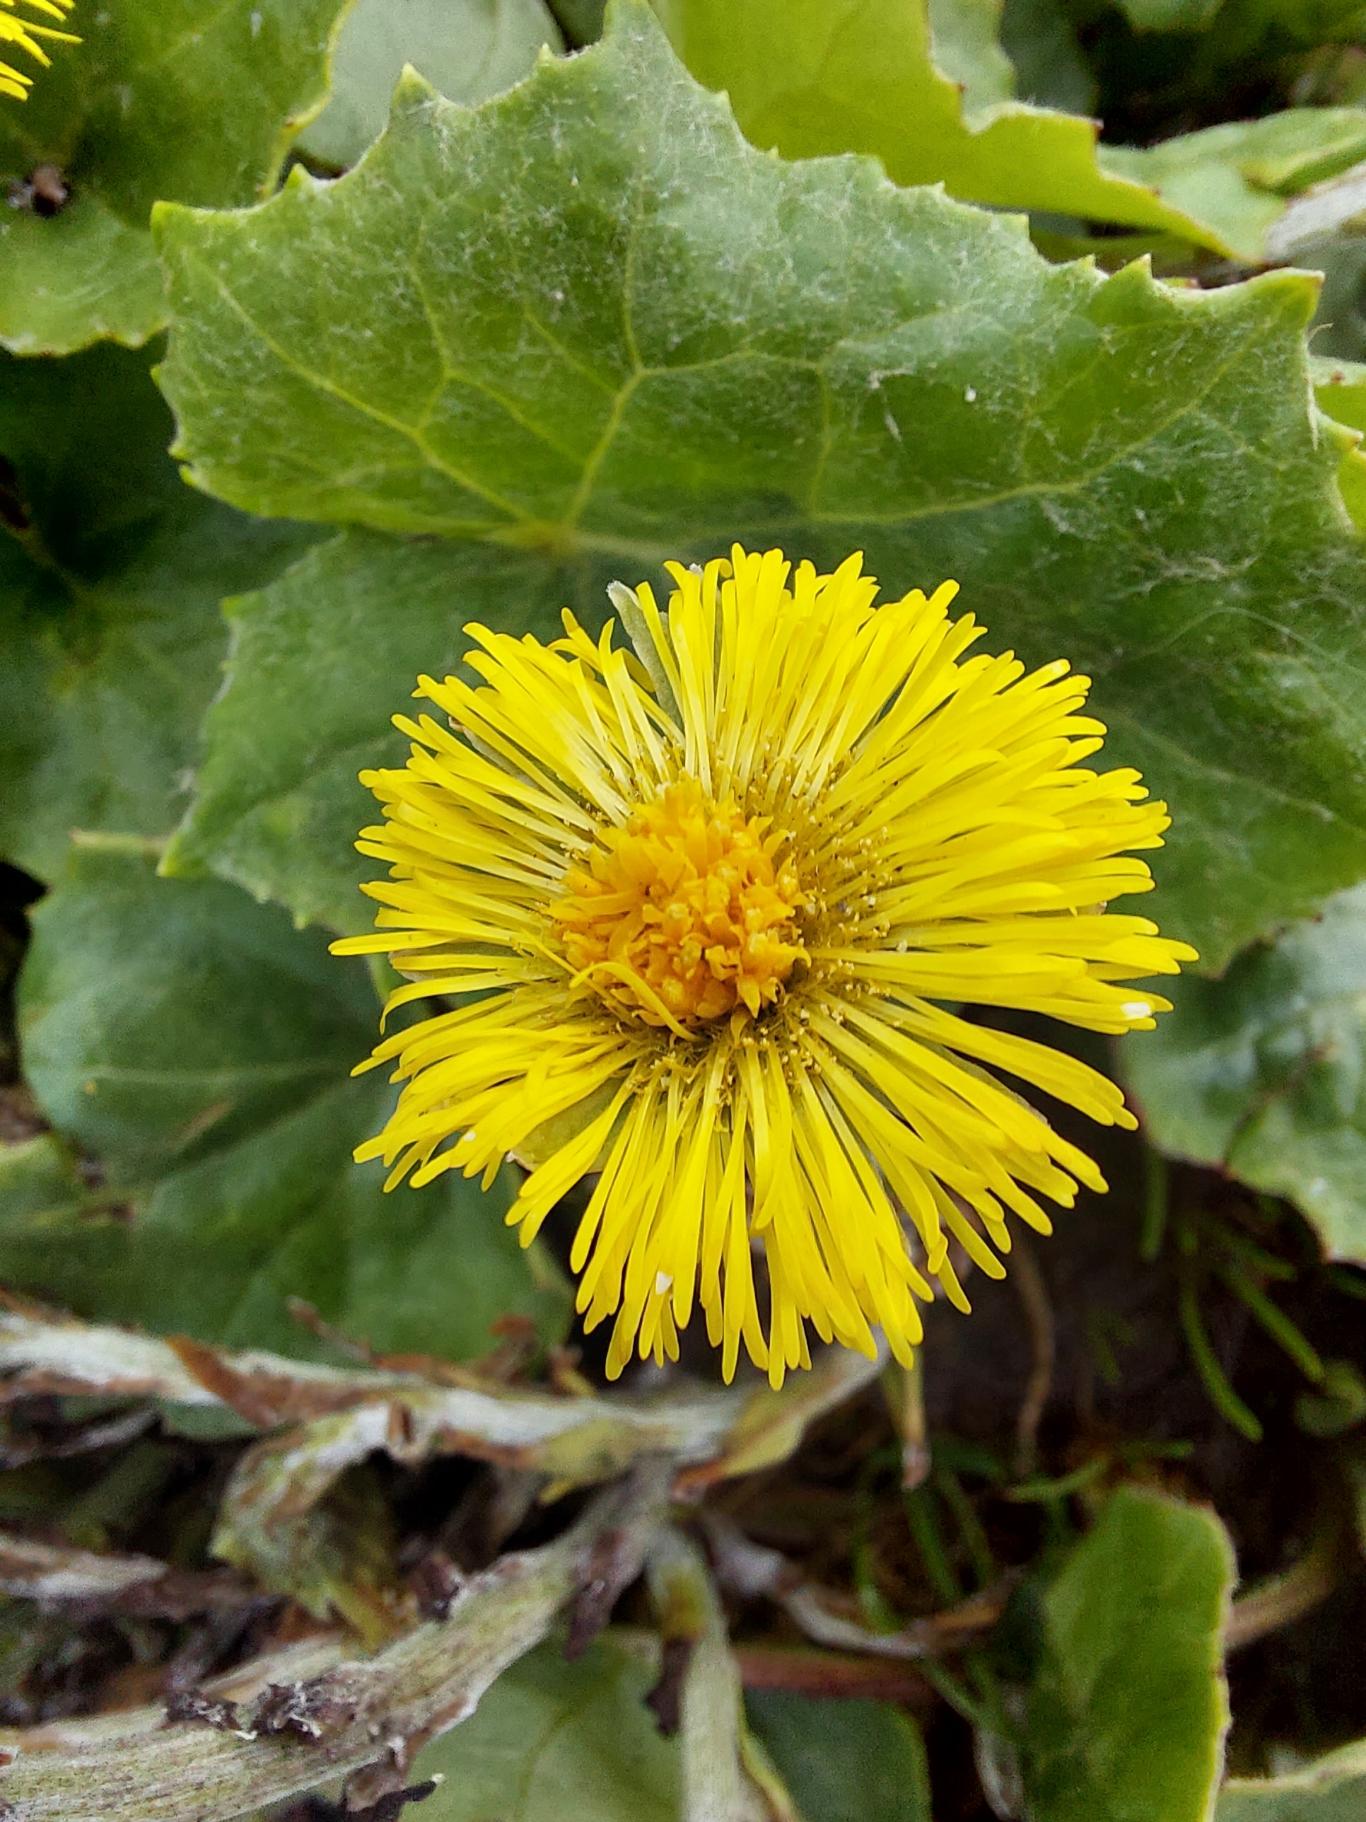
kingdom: Plantae
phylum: Tracheophyta
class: Magnoliopsida
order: Asterales
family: Asteraceae
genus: Tussilago
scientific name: Tussilago farfara
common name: Følfod
